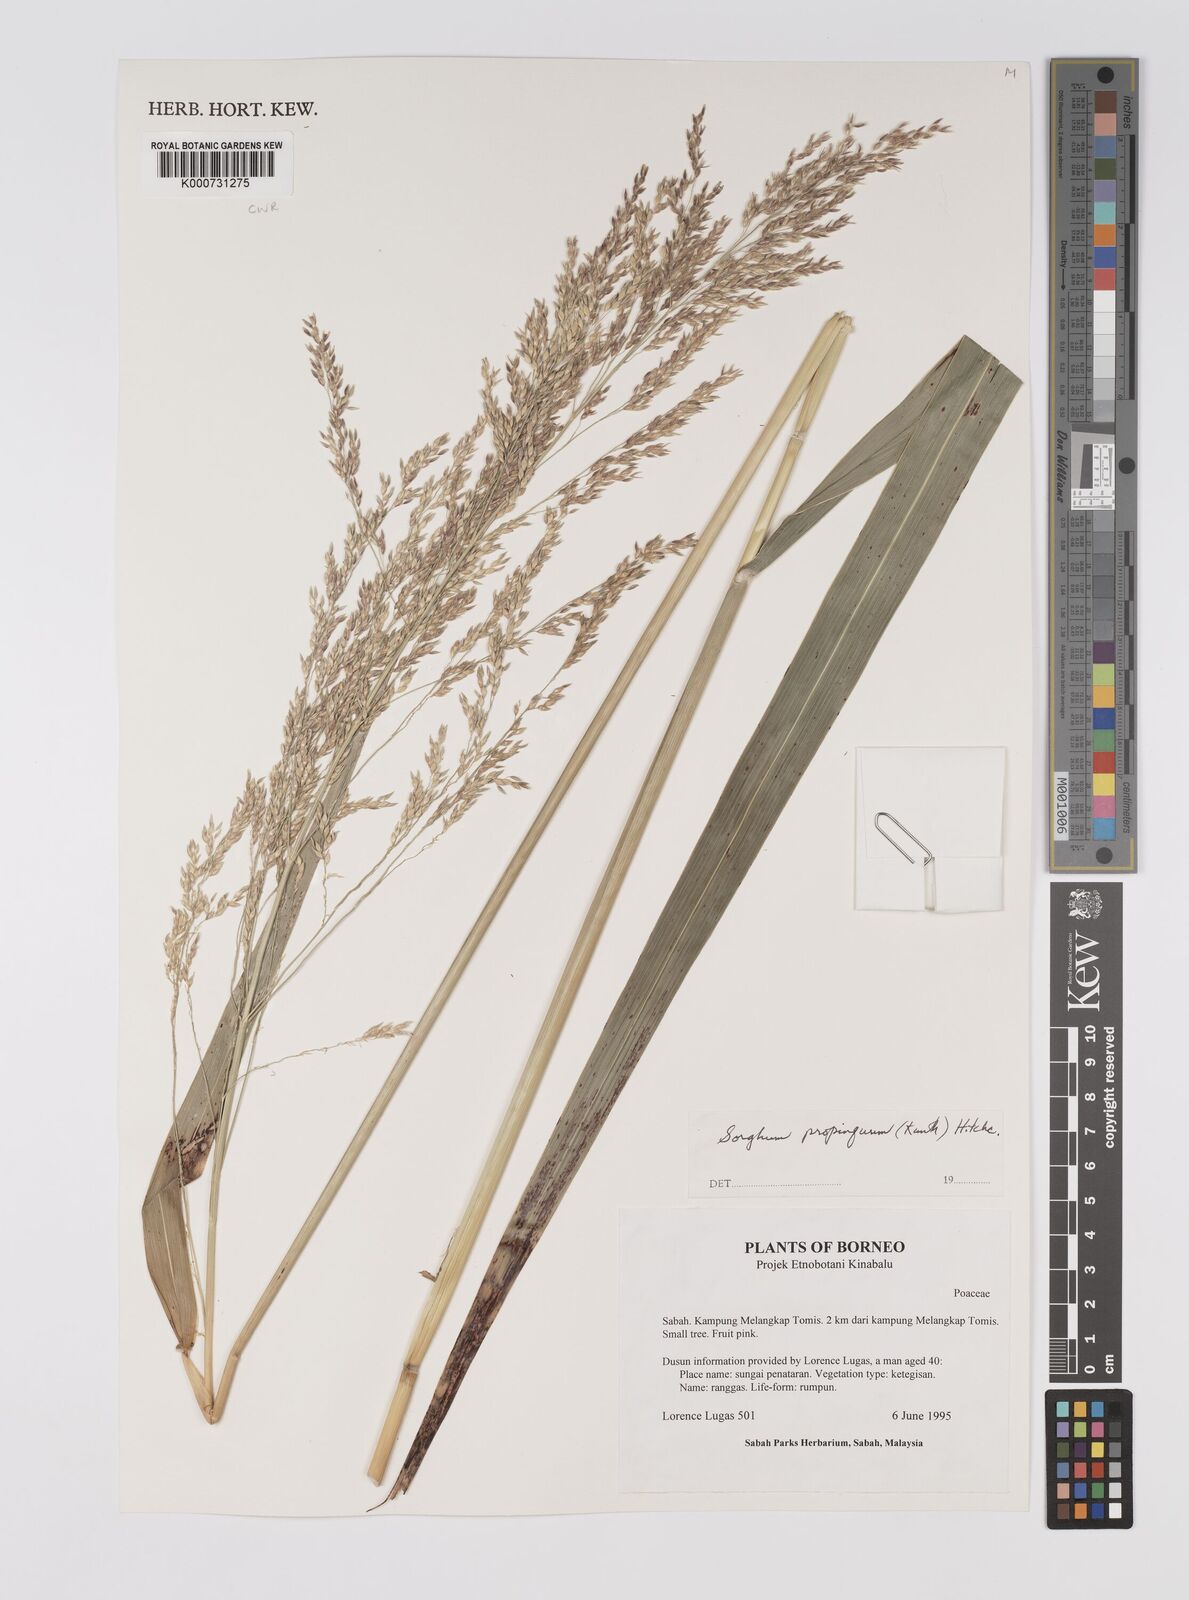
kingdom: Plantae
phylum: Tracheophyta
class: Liliopsida
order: Poales
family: Poaceae
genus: Sorghum
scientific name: Sorghum propinquum
